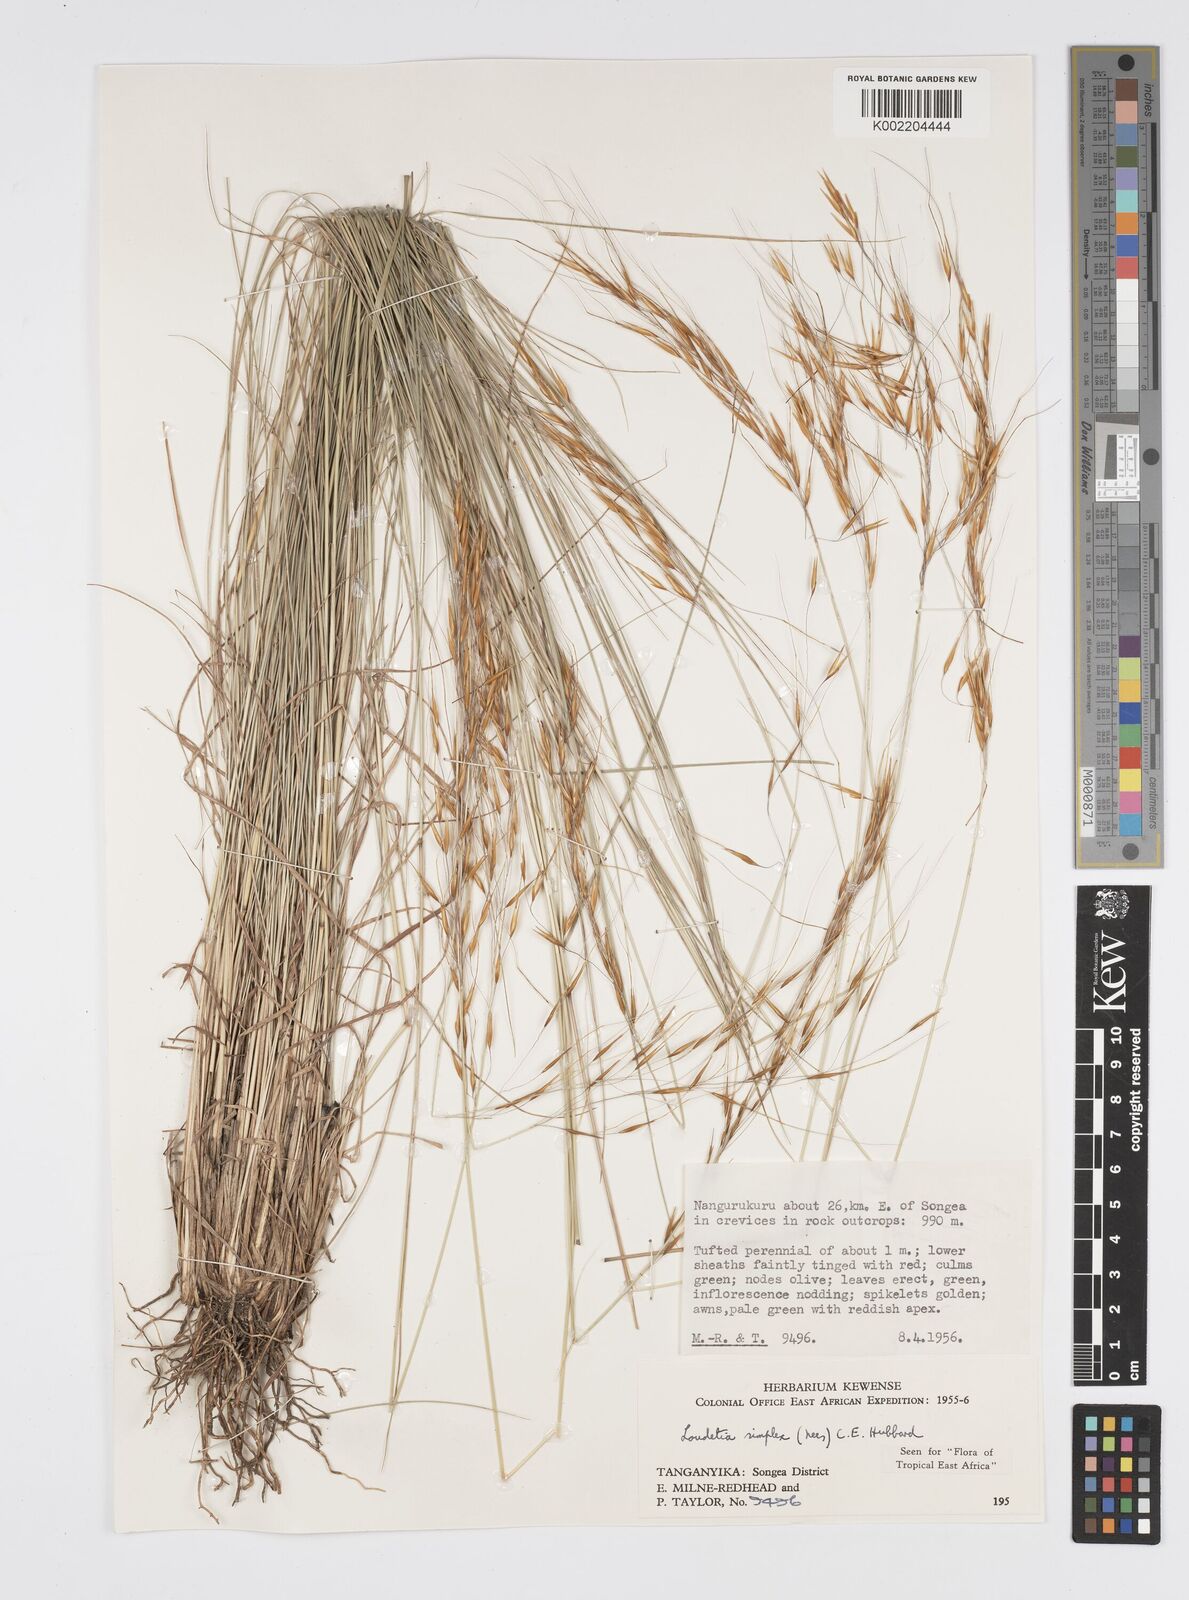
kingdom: Plantae
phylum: Tracheophyta
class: Liliopsida
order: Poales
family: Poaceae
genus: Loudetia
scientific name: Loudetia simplex
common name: Common russet grass
